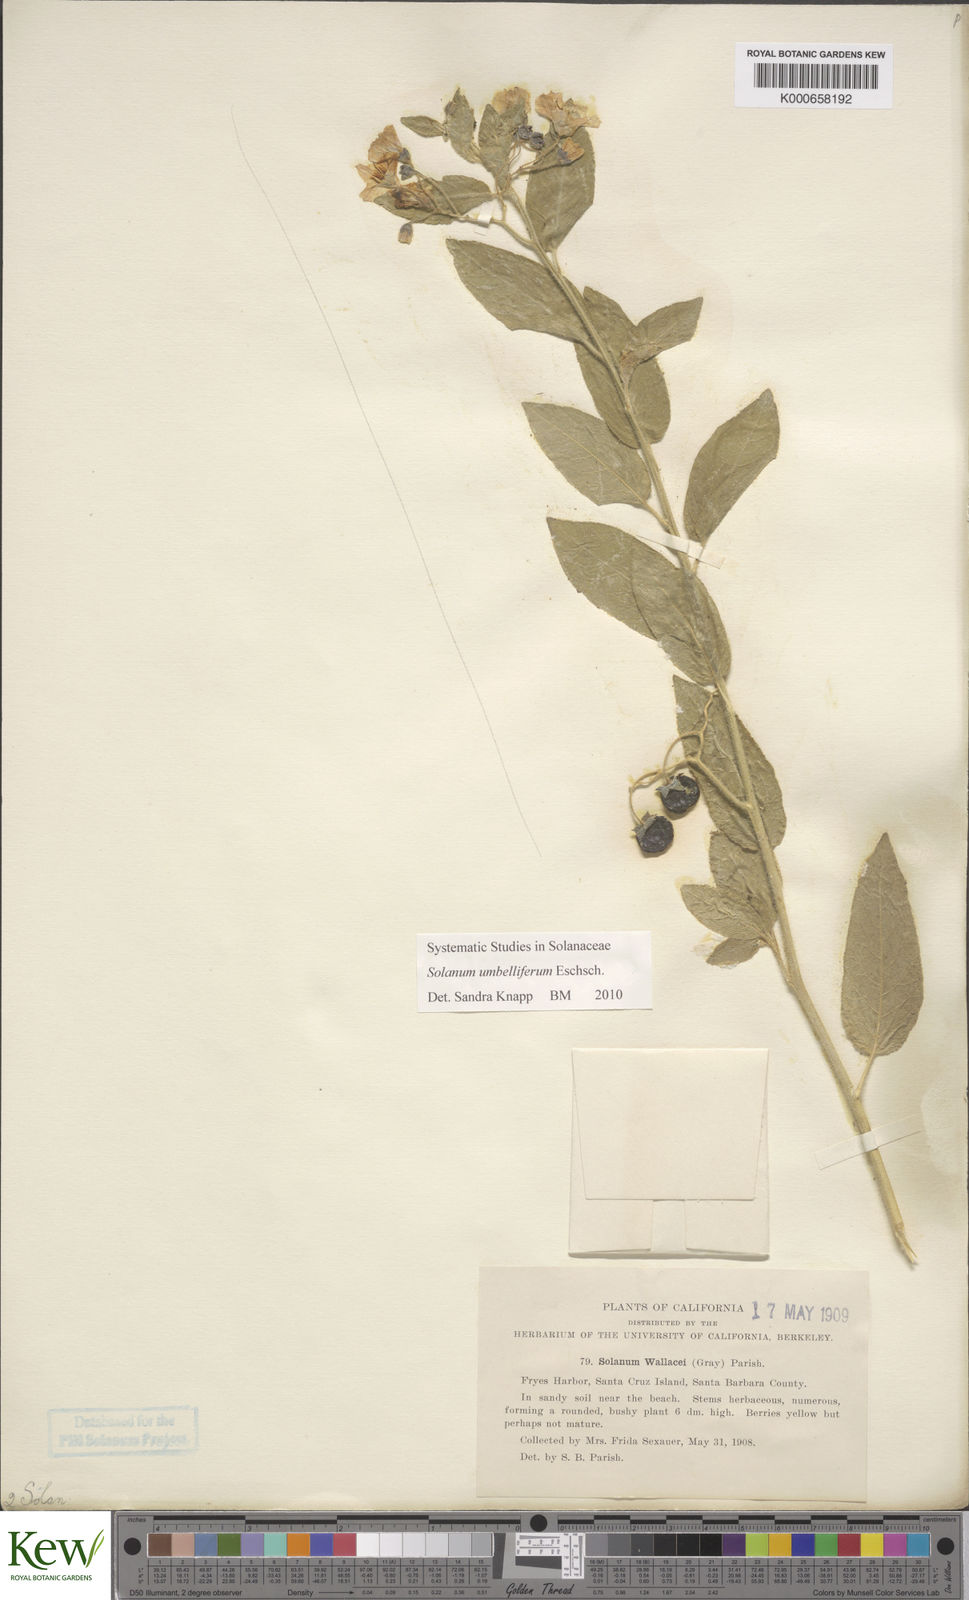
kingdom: Plantae
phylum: Tracheophyta
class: Magnoliopsida
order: Solanales
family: Solanaceae
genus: Solanum
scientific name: Solanum umbelliferum
